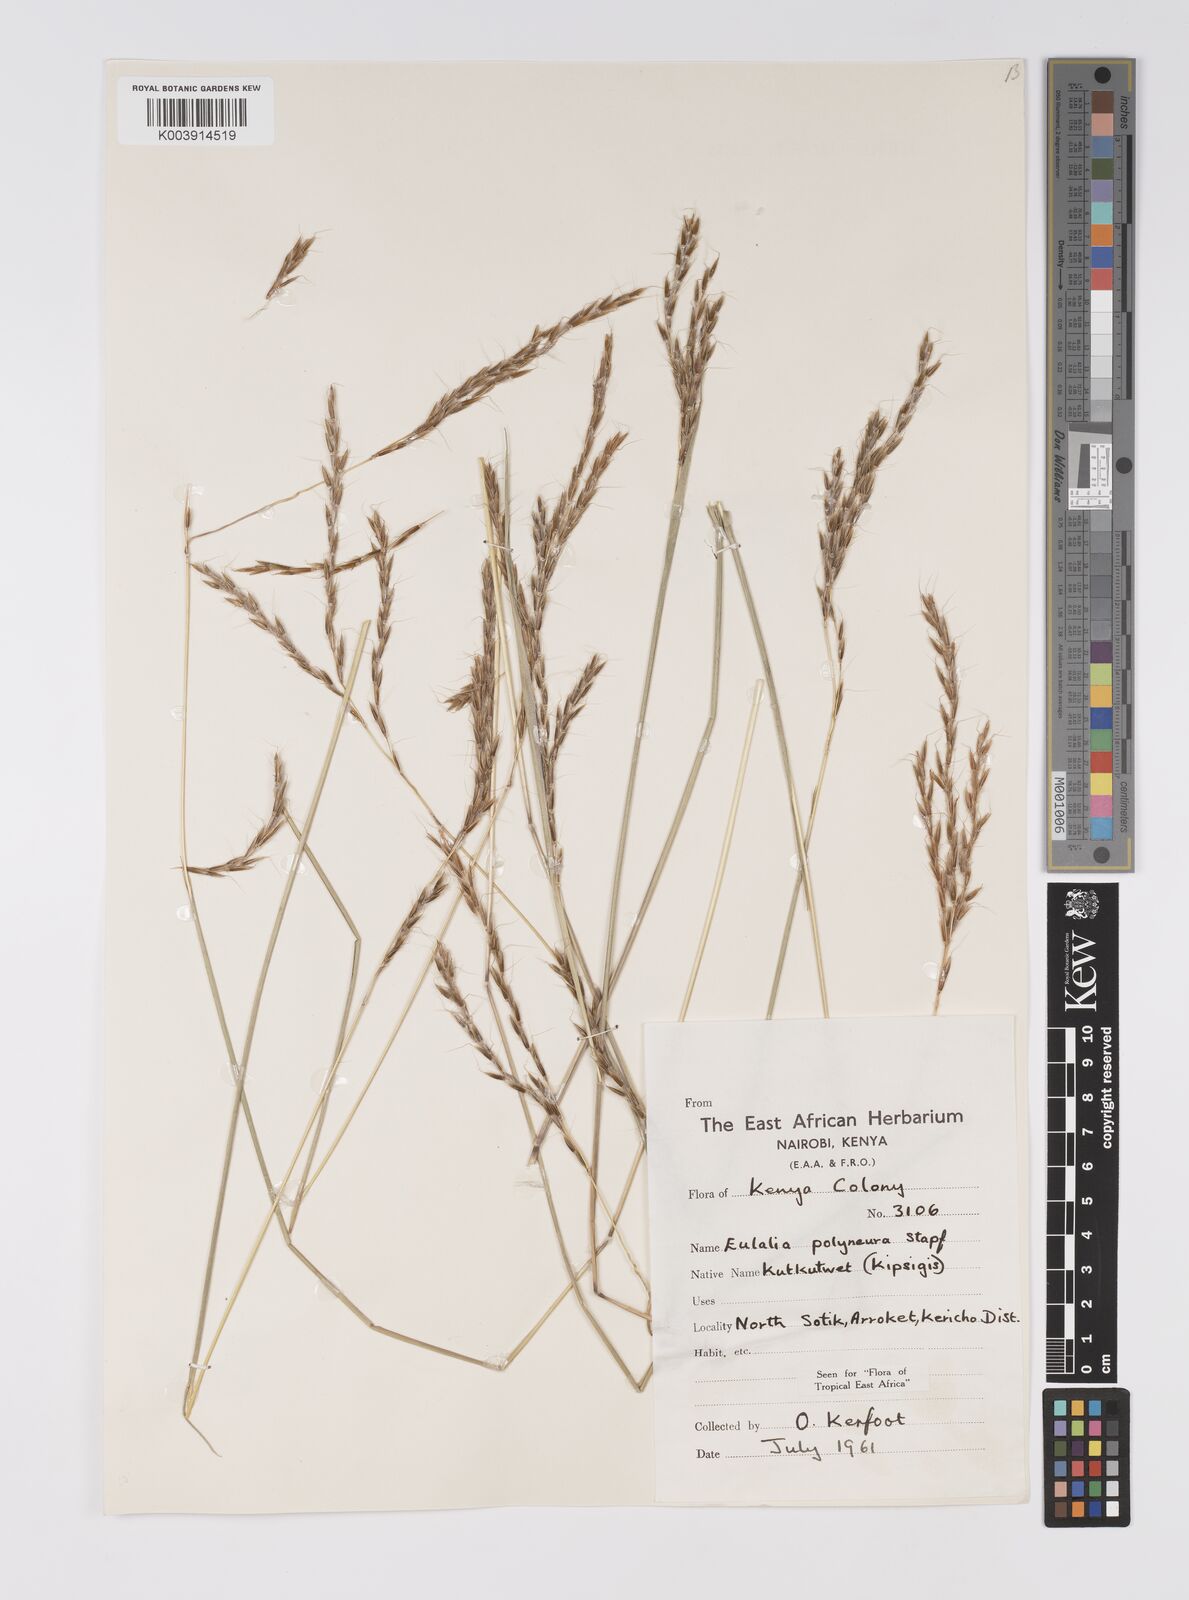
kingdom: Plantae
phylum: Tracheophyta
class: Liliopsida
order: Poales
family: Poaceae
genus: Eulalia
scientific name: Eulalia polyneura
